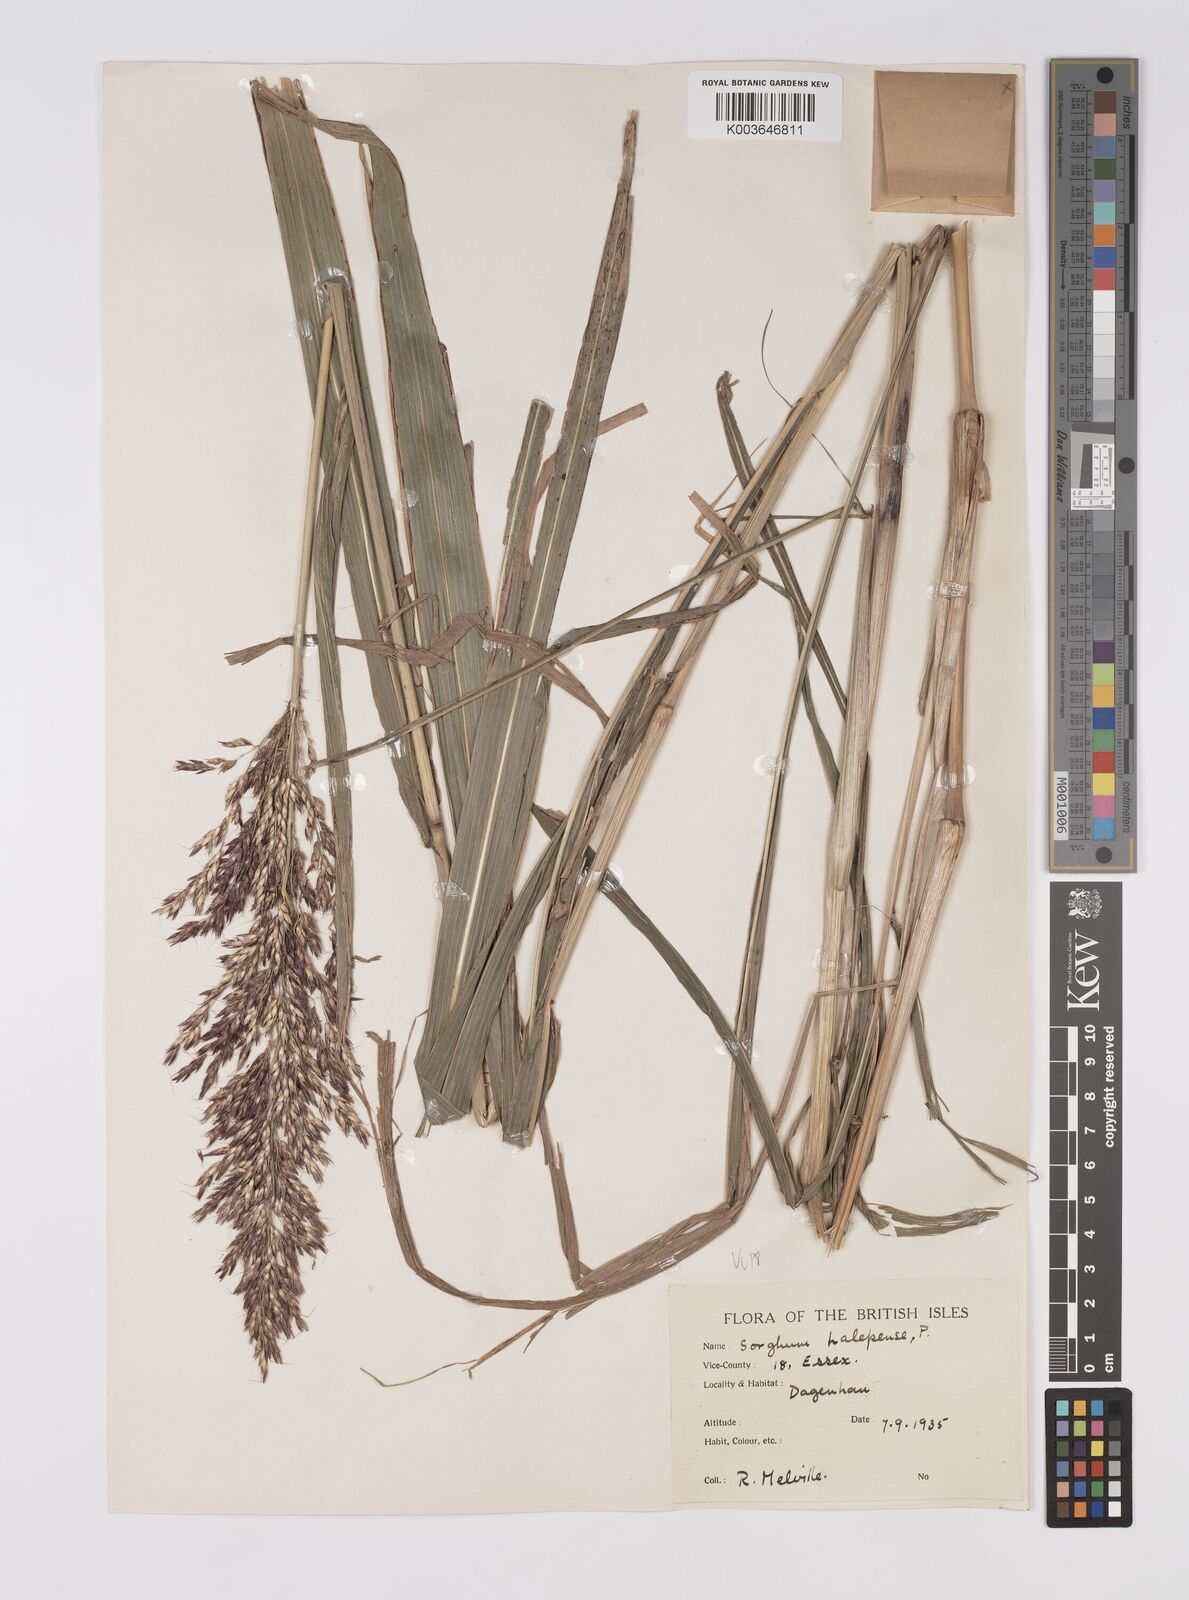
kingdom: Plantae
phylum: Tracheophyta
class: Liliopsida
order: Poales
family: Poaceae
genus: Sorghum
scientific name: Sorghum halepense
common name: Johnson-grass
